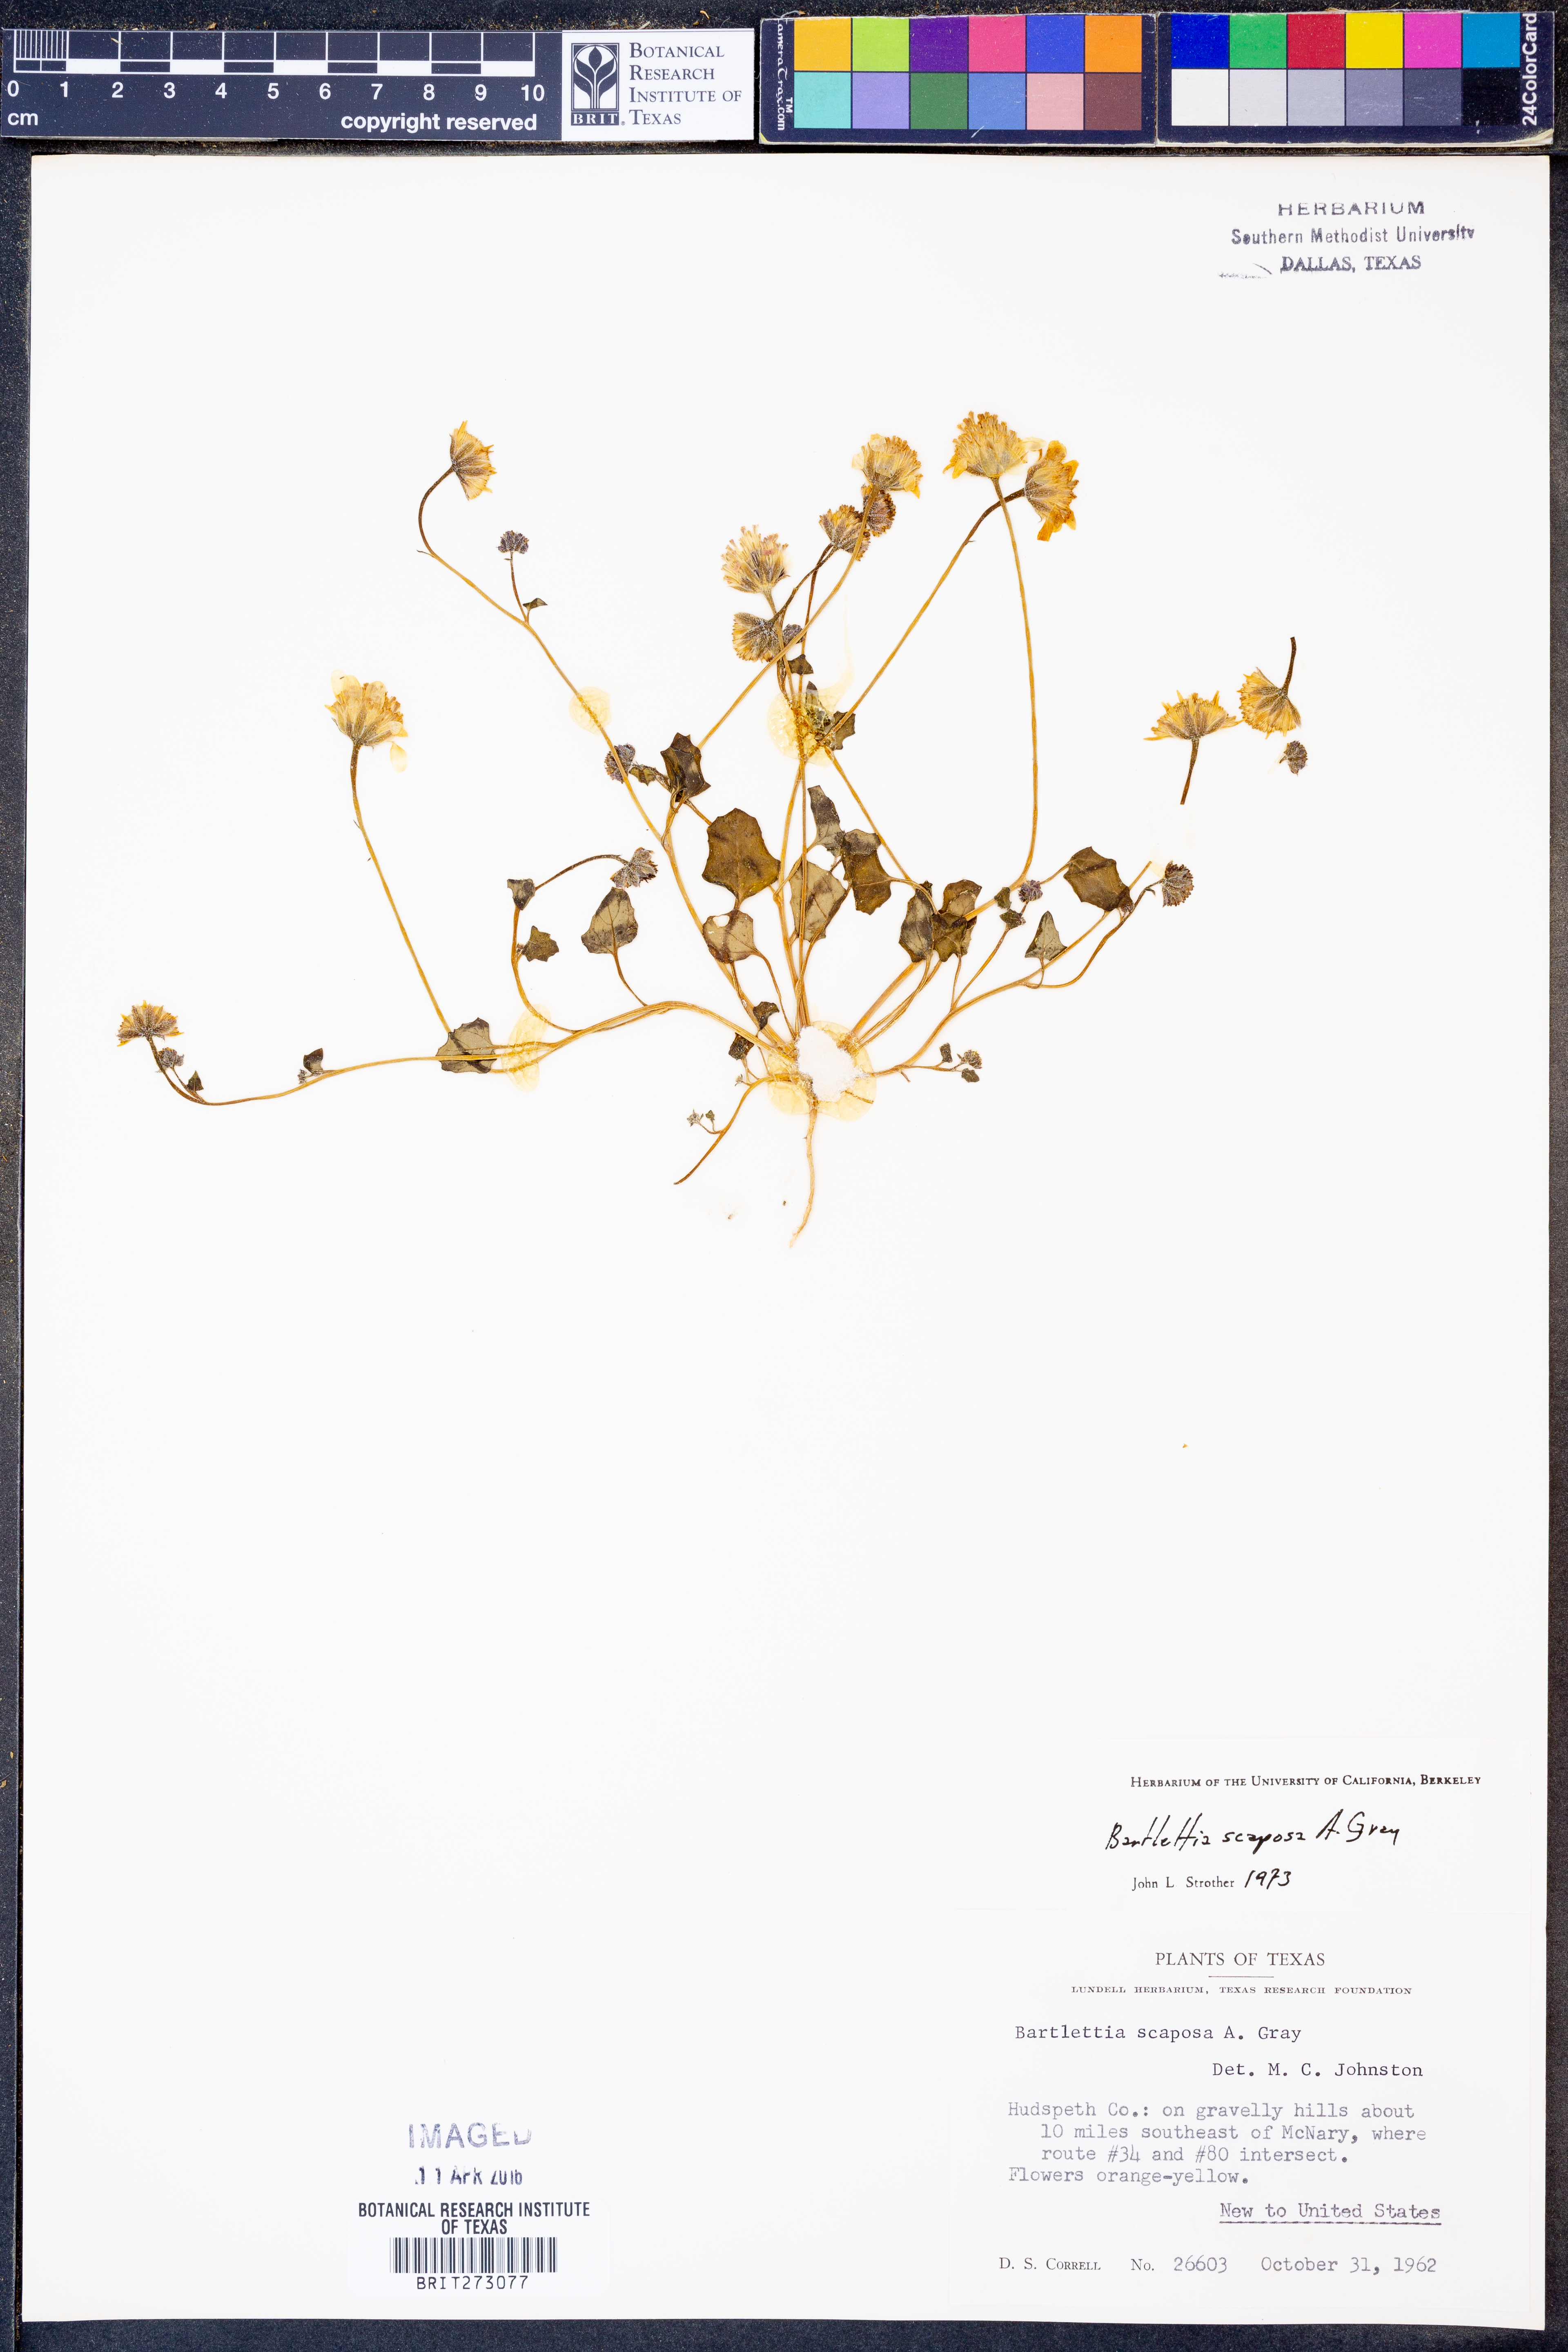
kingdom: Plantae
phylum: Tracheophyta
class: Magnoliopsida
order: Asterales
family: Asteraceae
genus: Bartlettia
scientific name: Bartlettia scaposa
